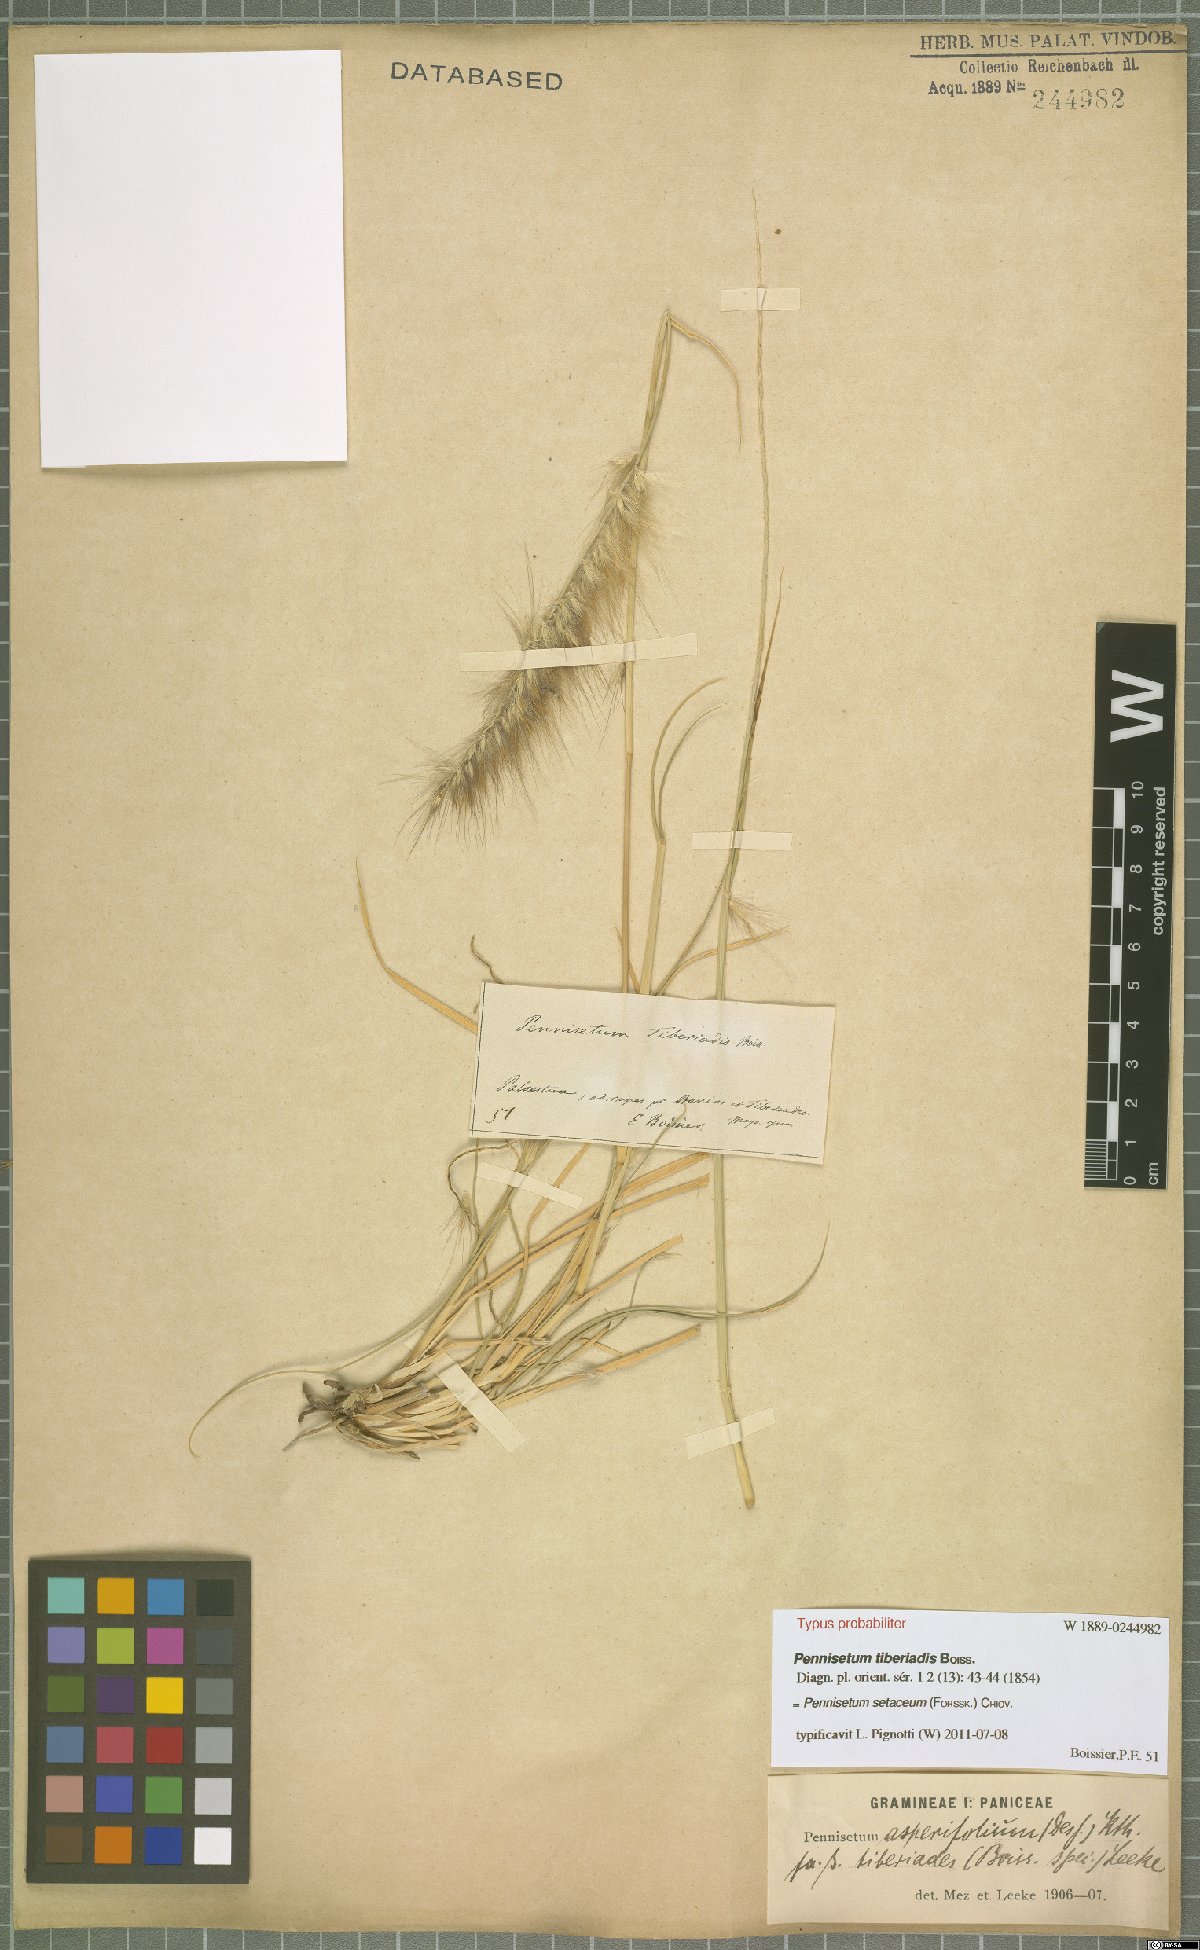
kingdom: Plantae
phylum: Tracheophyta
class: Liliopsida
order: Poales
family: Poaceae
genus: Cenchrus
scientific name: Cenchrus setaceus
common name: Crimson fountaingrass
